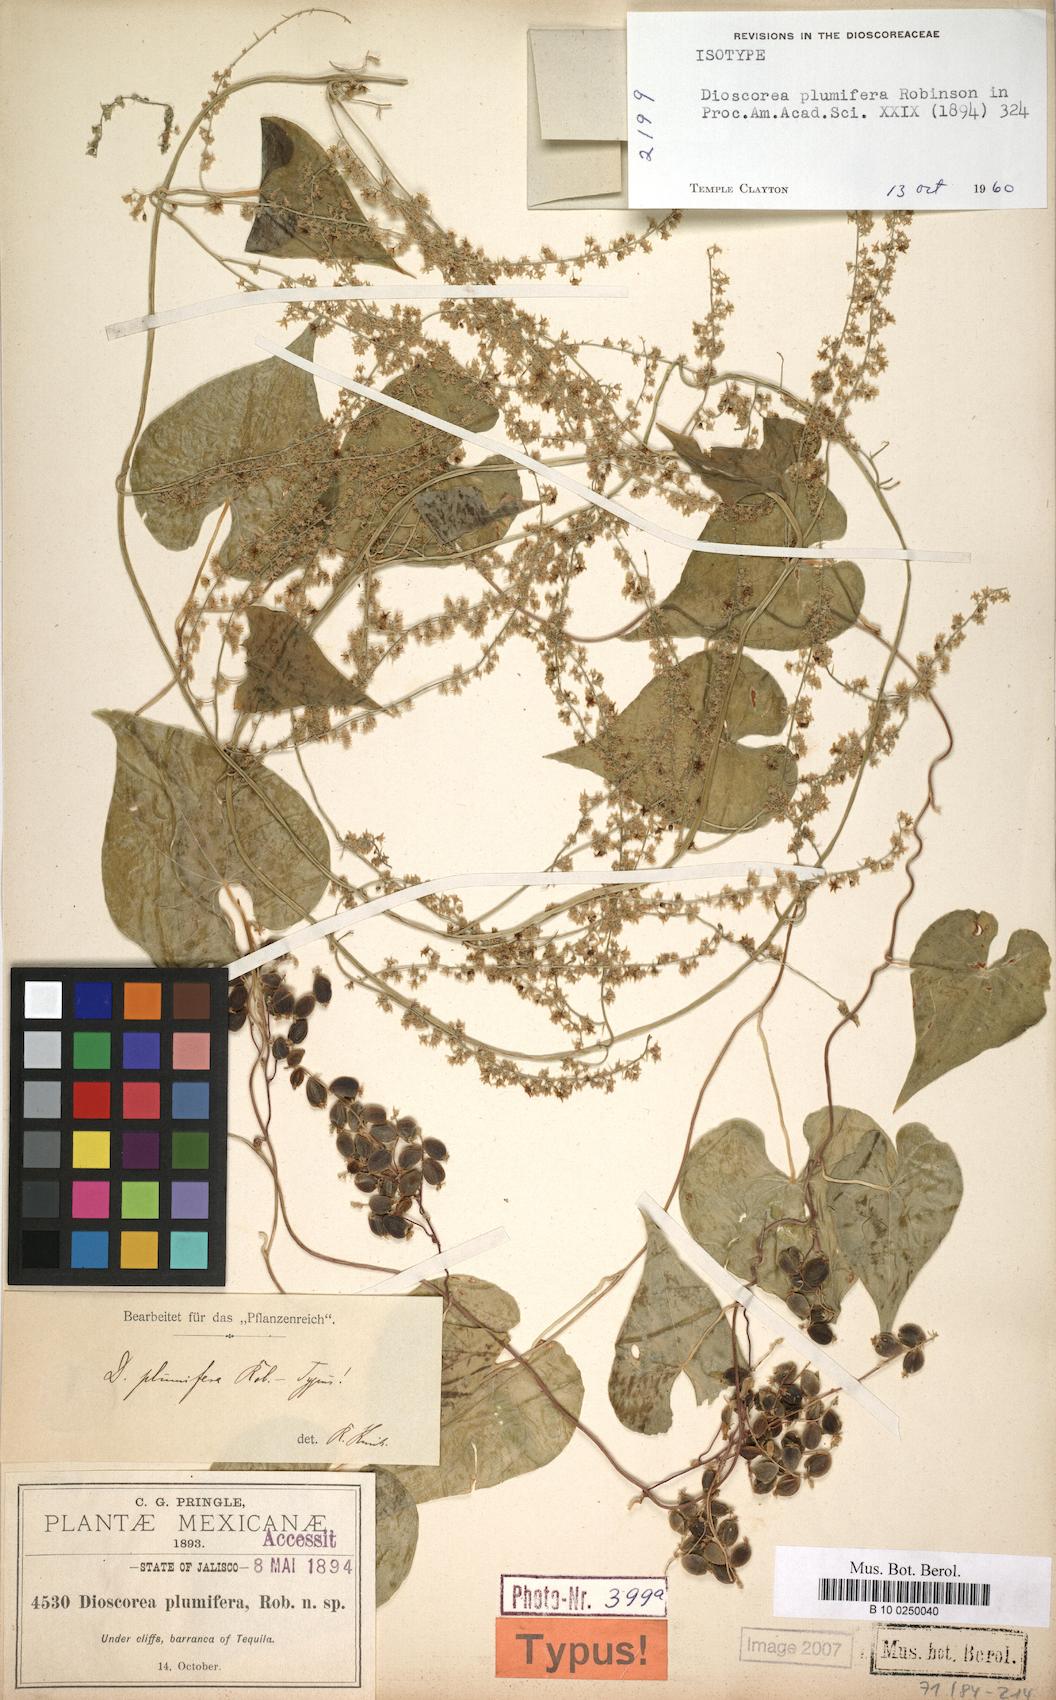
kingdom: Plantae
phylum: Tracheophyta
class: Liliopsida
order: Dioscoreales
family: Dioscoreaceae
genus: Dioscorea
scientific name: Dioscorea plumifera
